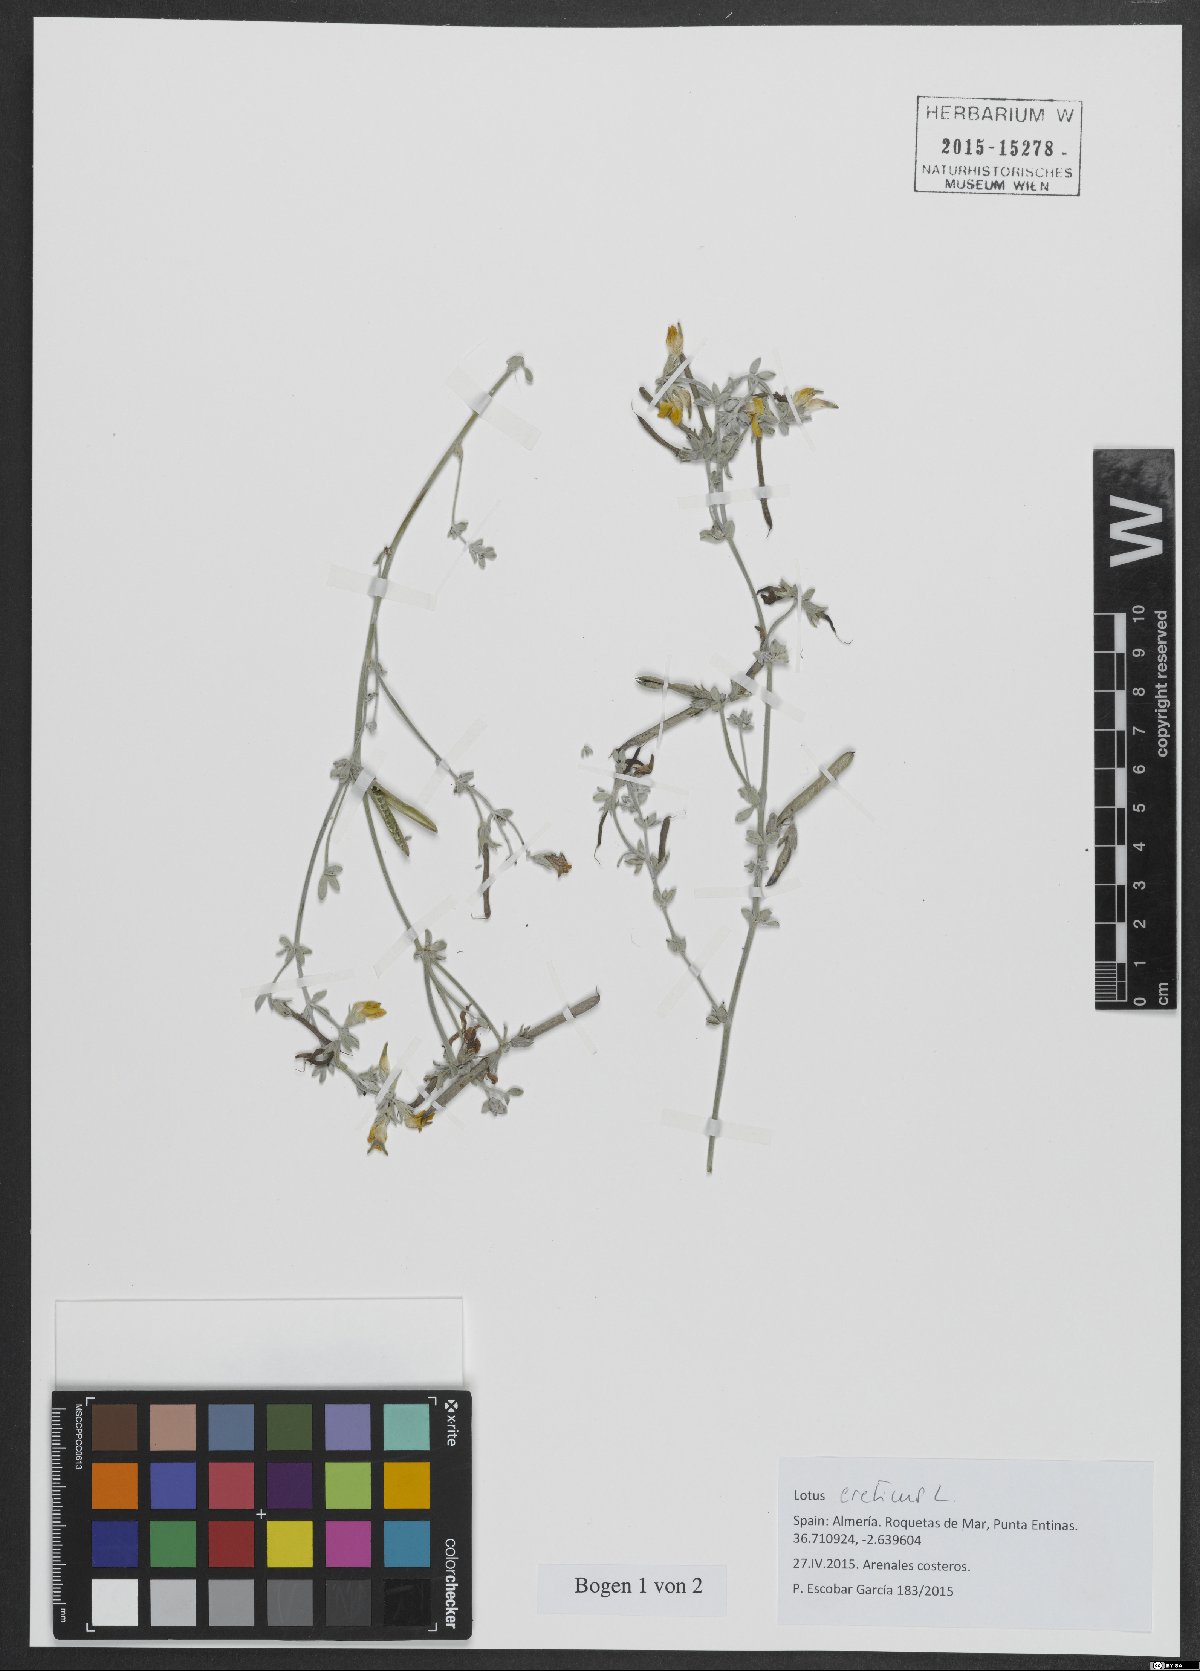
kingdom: Plantae
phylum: Tracheophyta
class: Magnoliopsida
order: Fabales
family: Fabaceae
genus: Lotus
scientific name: Lotus creticus
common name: Cretan bird's-foot trefoil
